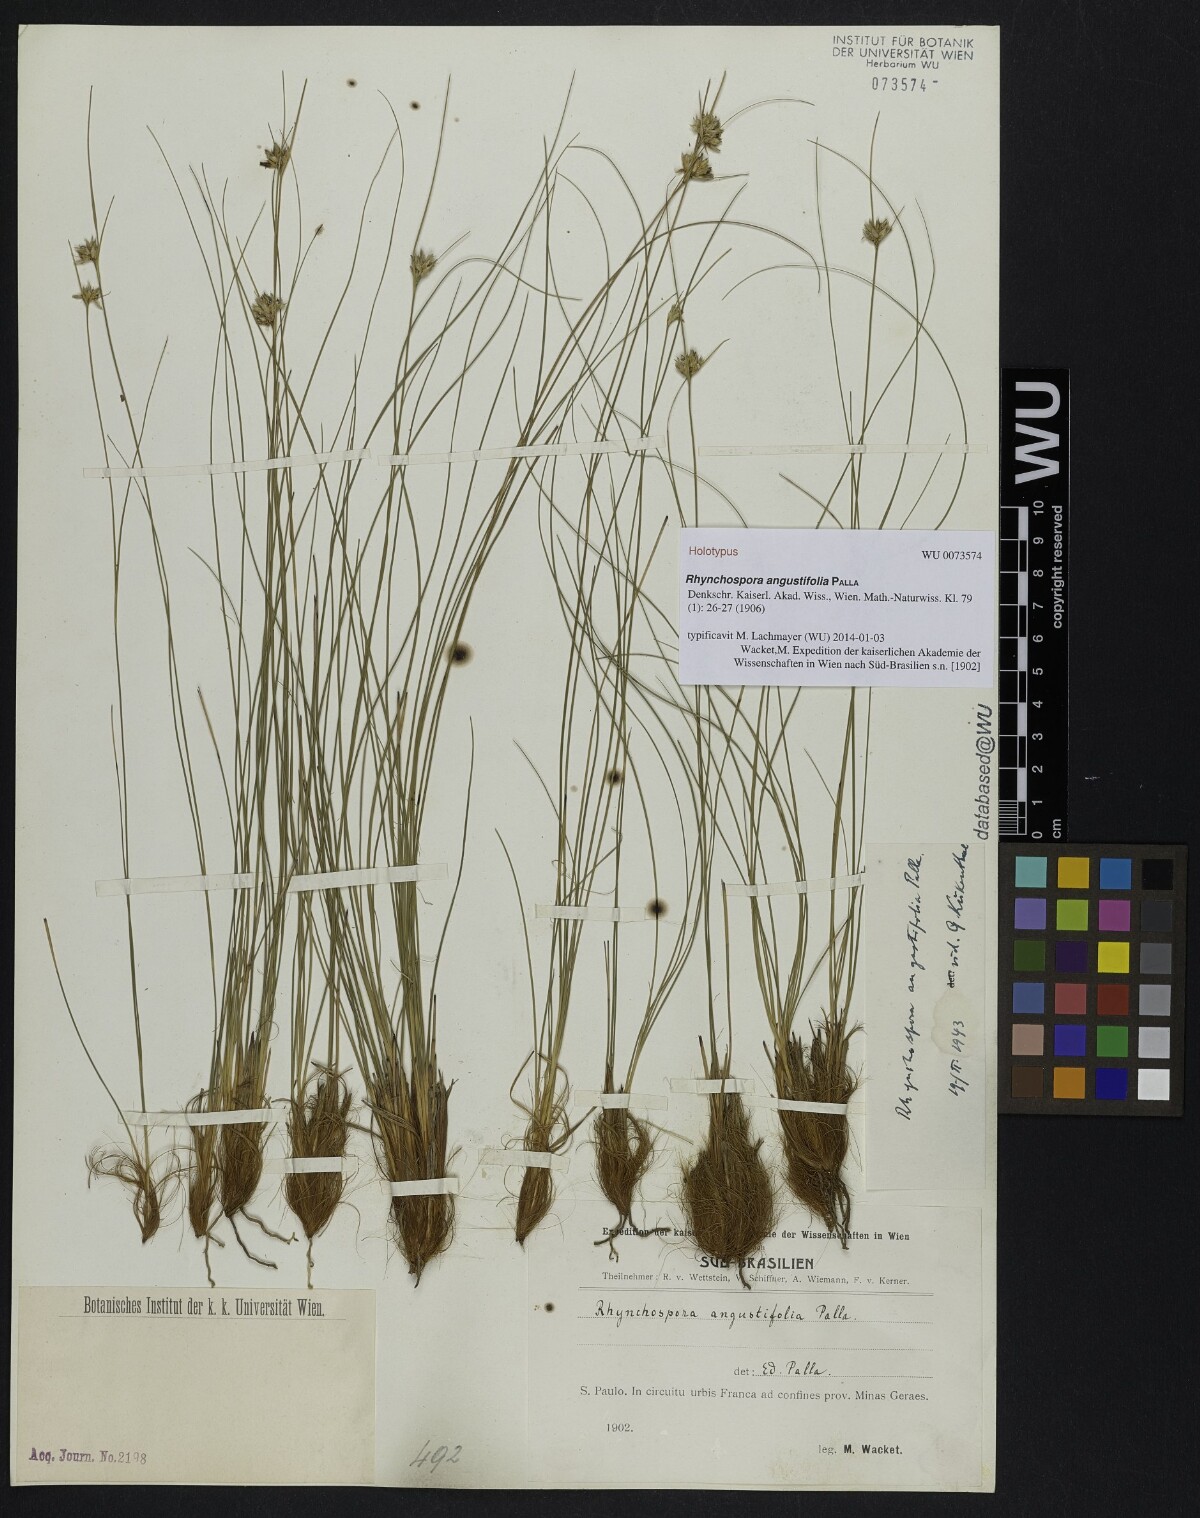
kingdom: Plantae
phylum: Tracheophyta
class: Liliopsida
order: Poales
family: Cyperaceae
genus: Rhynchospora
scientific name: Rhynchospora angustifolia
